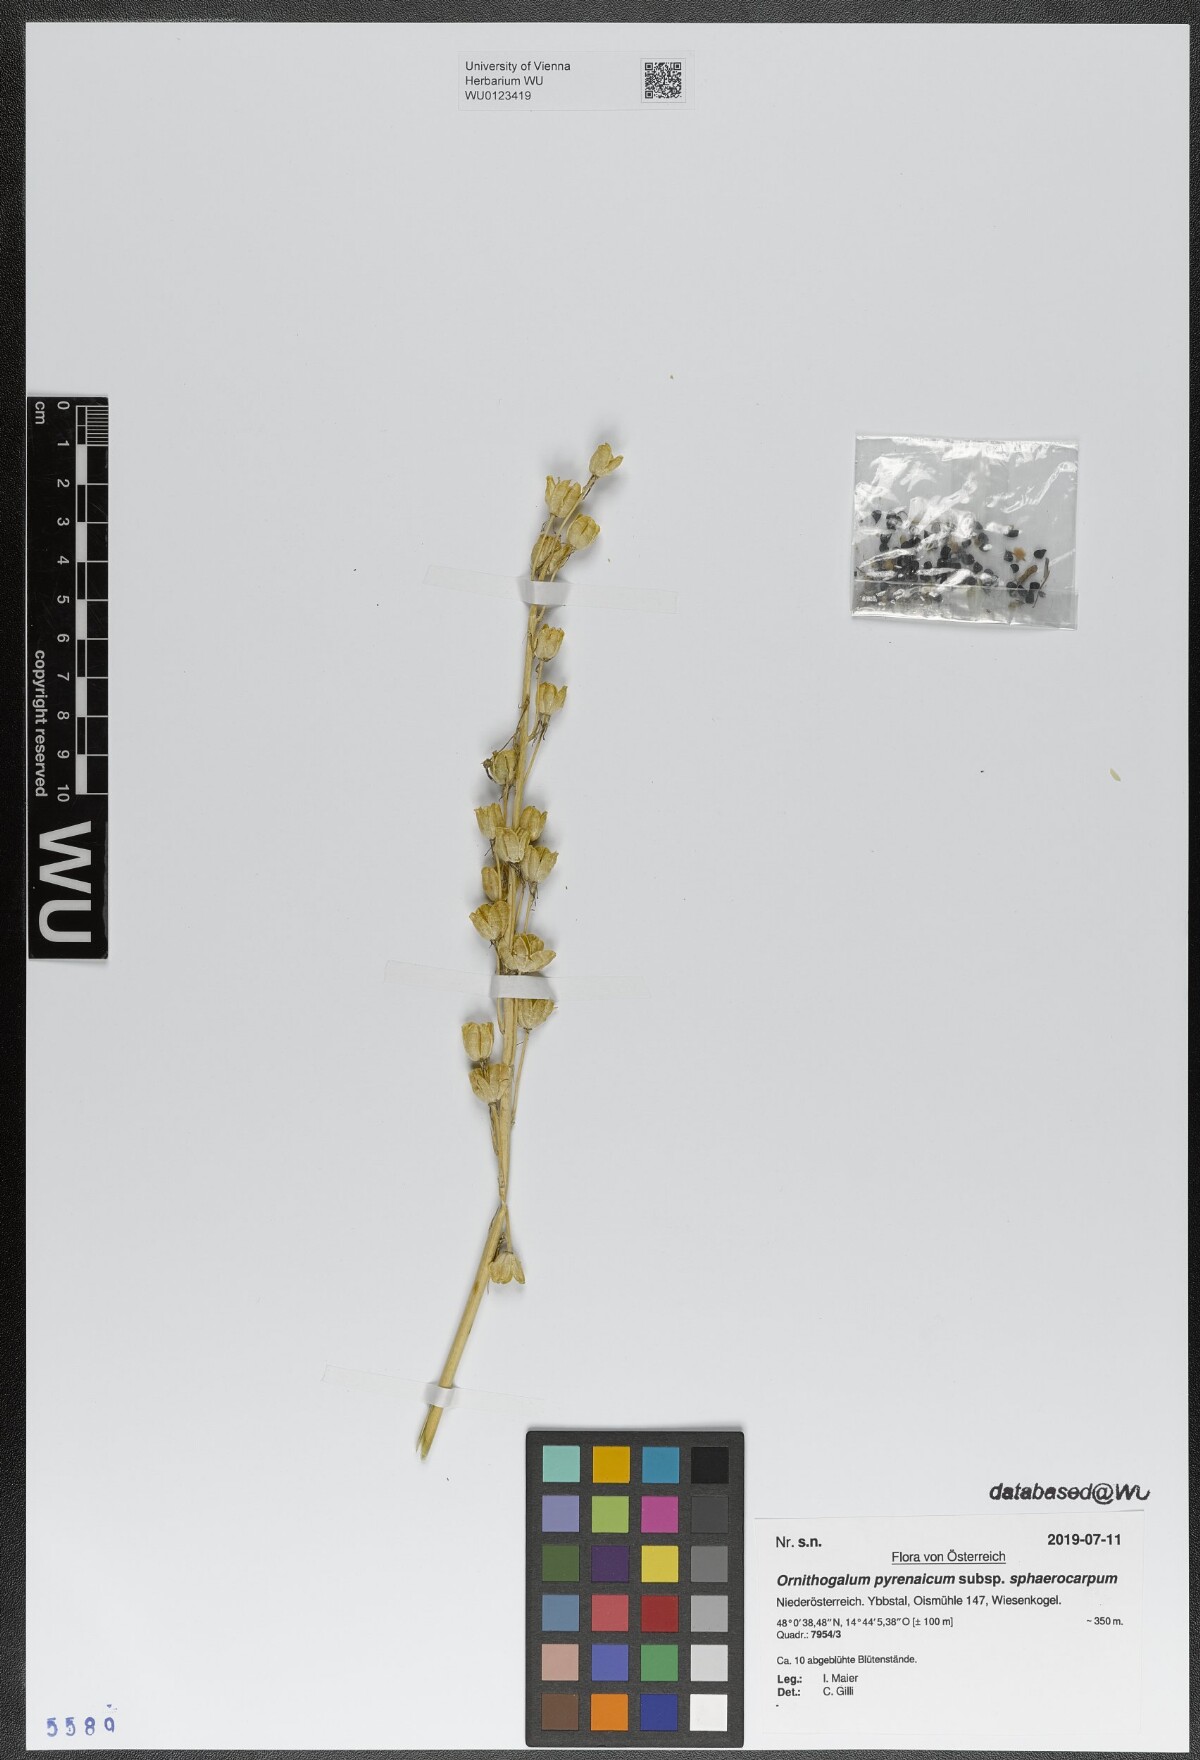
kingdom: Plantae
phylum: Tracheophyta
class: Liliopsida
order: Asparagales
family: Asparagaceae
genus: Ornithogalum
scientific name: Ornithogalum sphaerocarpum
